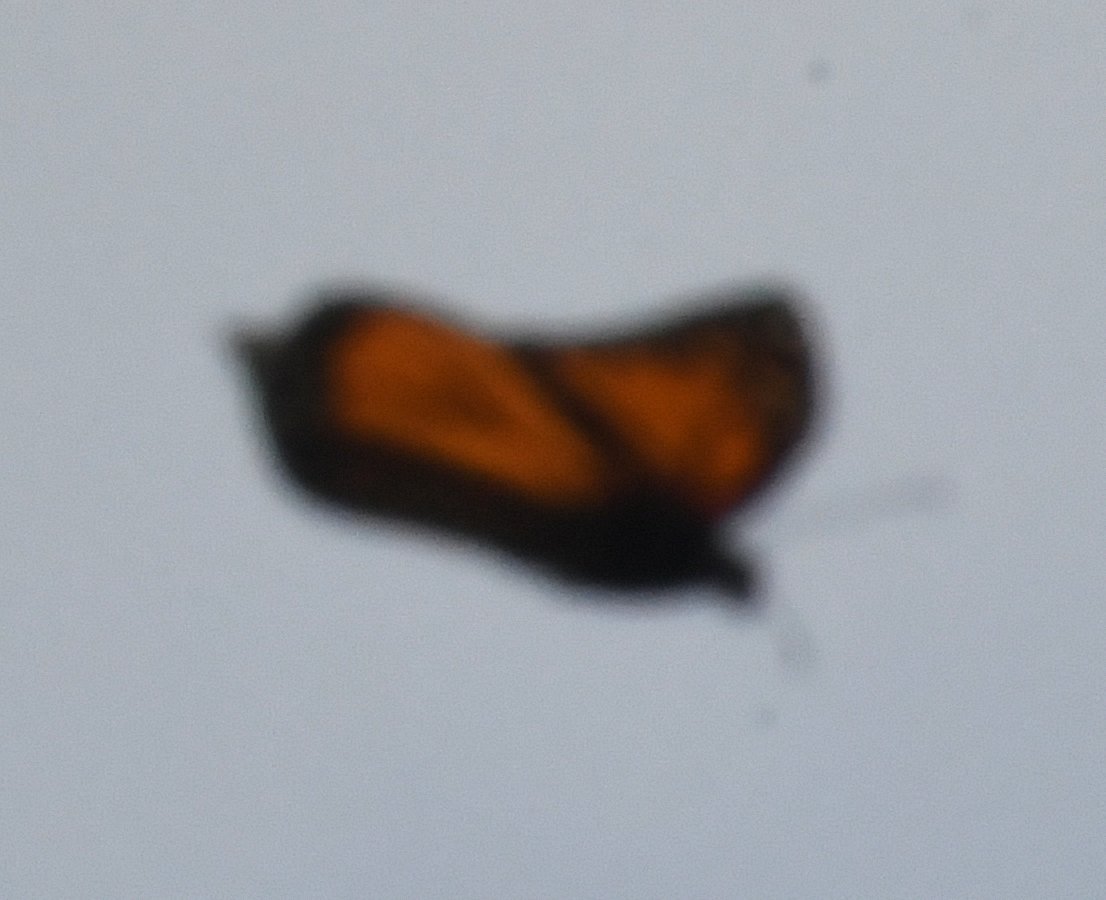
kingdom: Animalia
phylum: Arthropoda
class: Insecta
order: Lepidoptera
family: Nymphalidae
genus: Danaus
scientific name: Danaus plexippus
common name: Monarch
